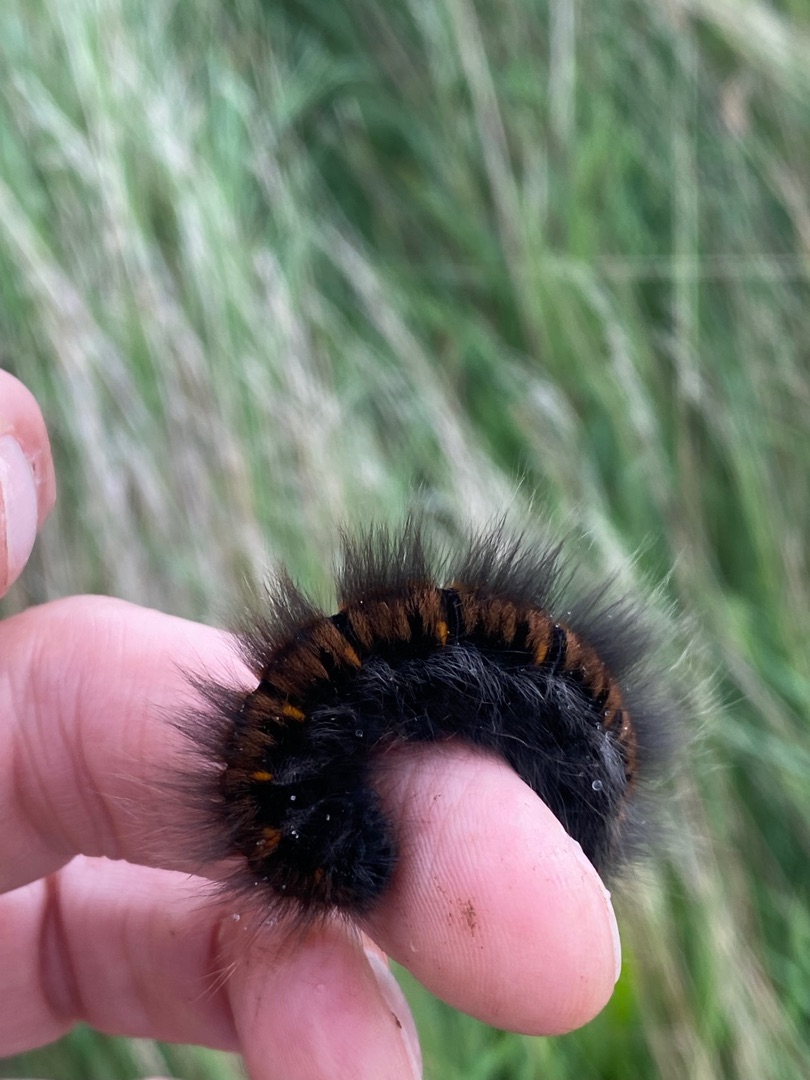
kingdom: Animalia
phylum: Arthropoda
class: Insecta
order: Lepidoptera
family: Lasiocampidae
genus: Macrothylacia
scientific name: Macrothylacia rubi
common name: Brombærspinder
